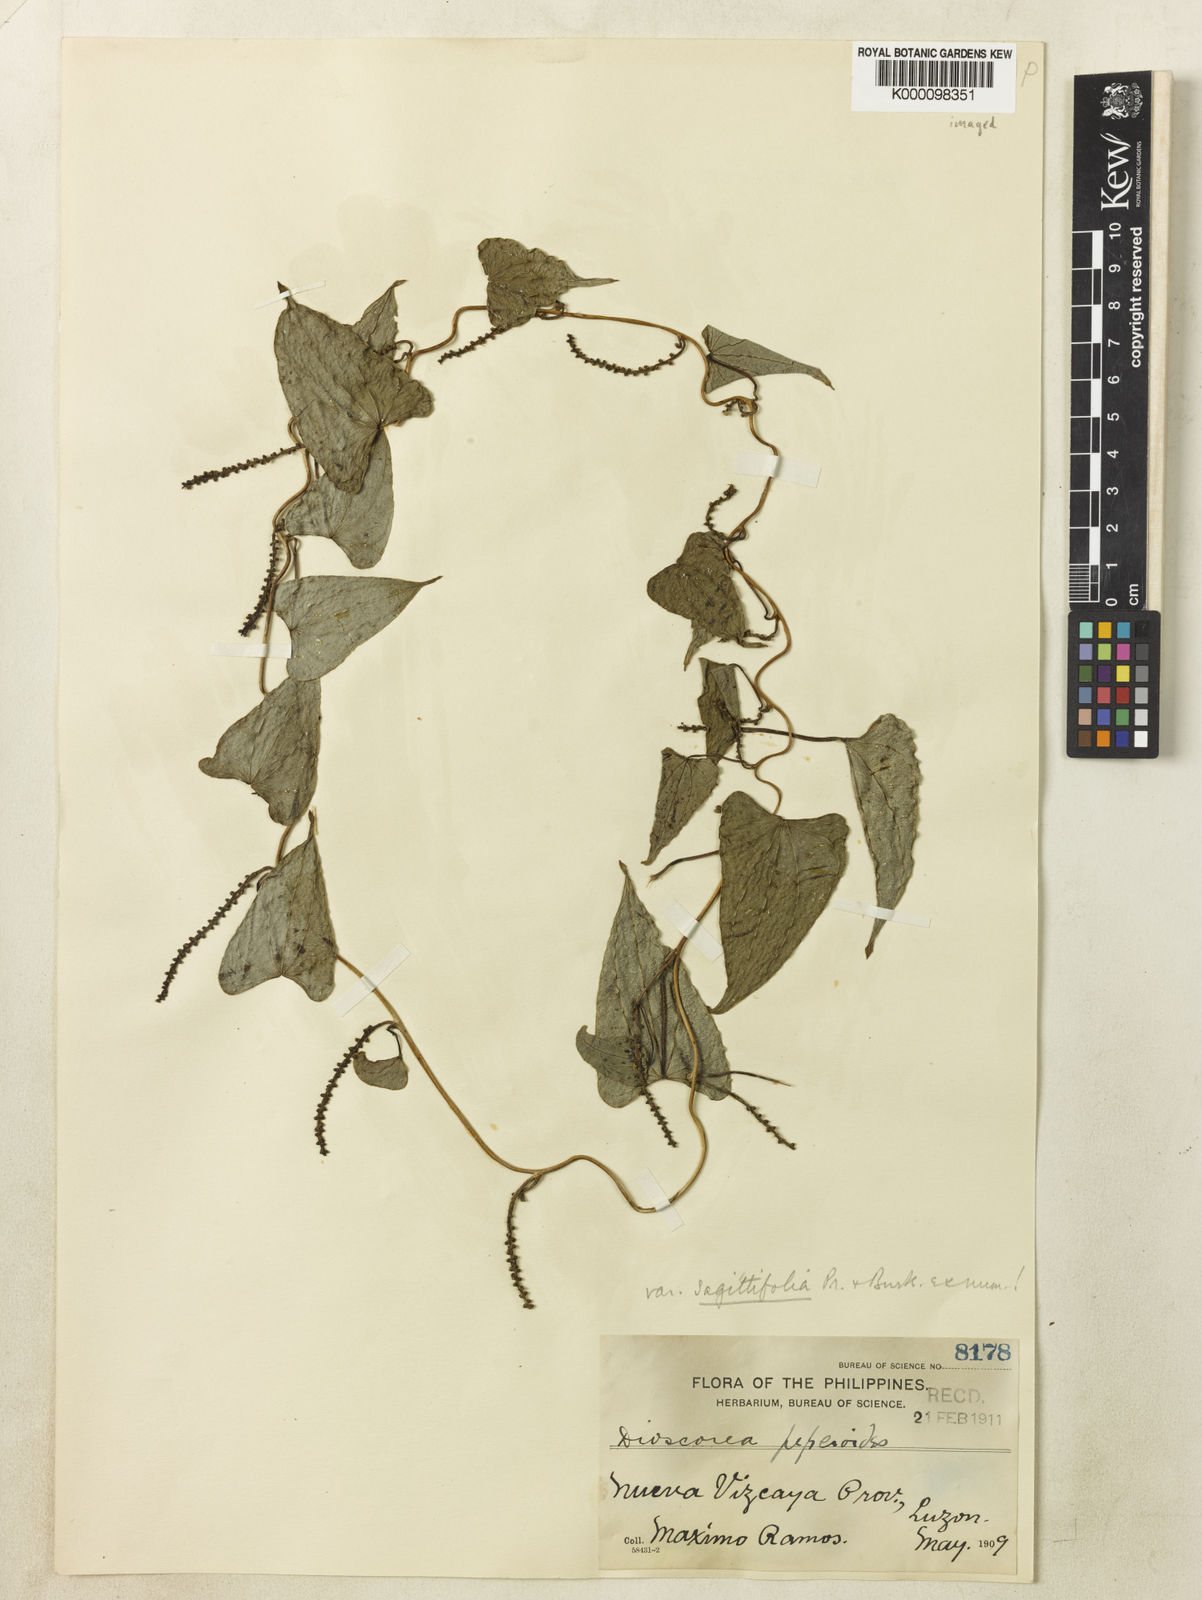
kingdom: Plantae
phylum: Tracheophyta
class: Liliopsida
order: Dioscoreales
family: Dioscoreaceae
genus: Dioscorea
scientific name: Dioscorea peperoides
